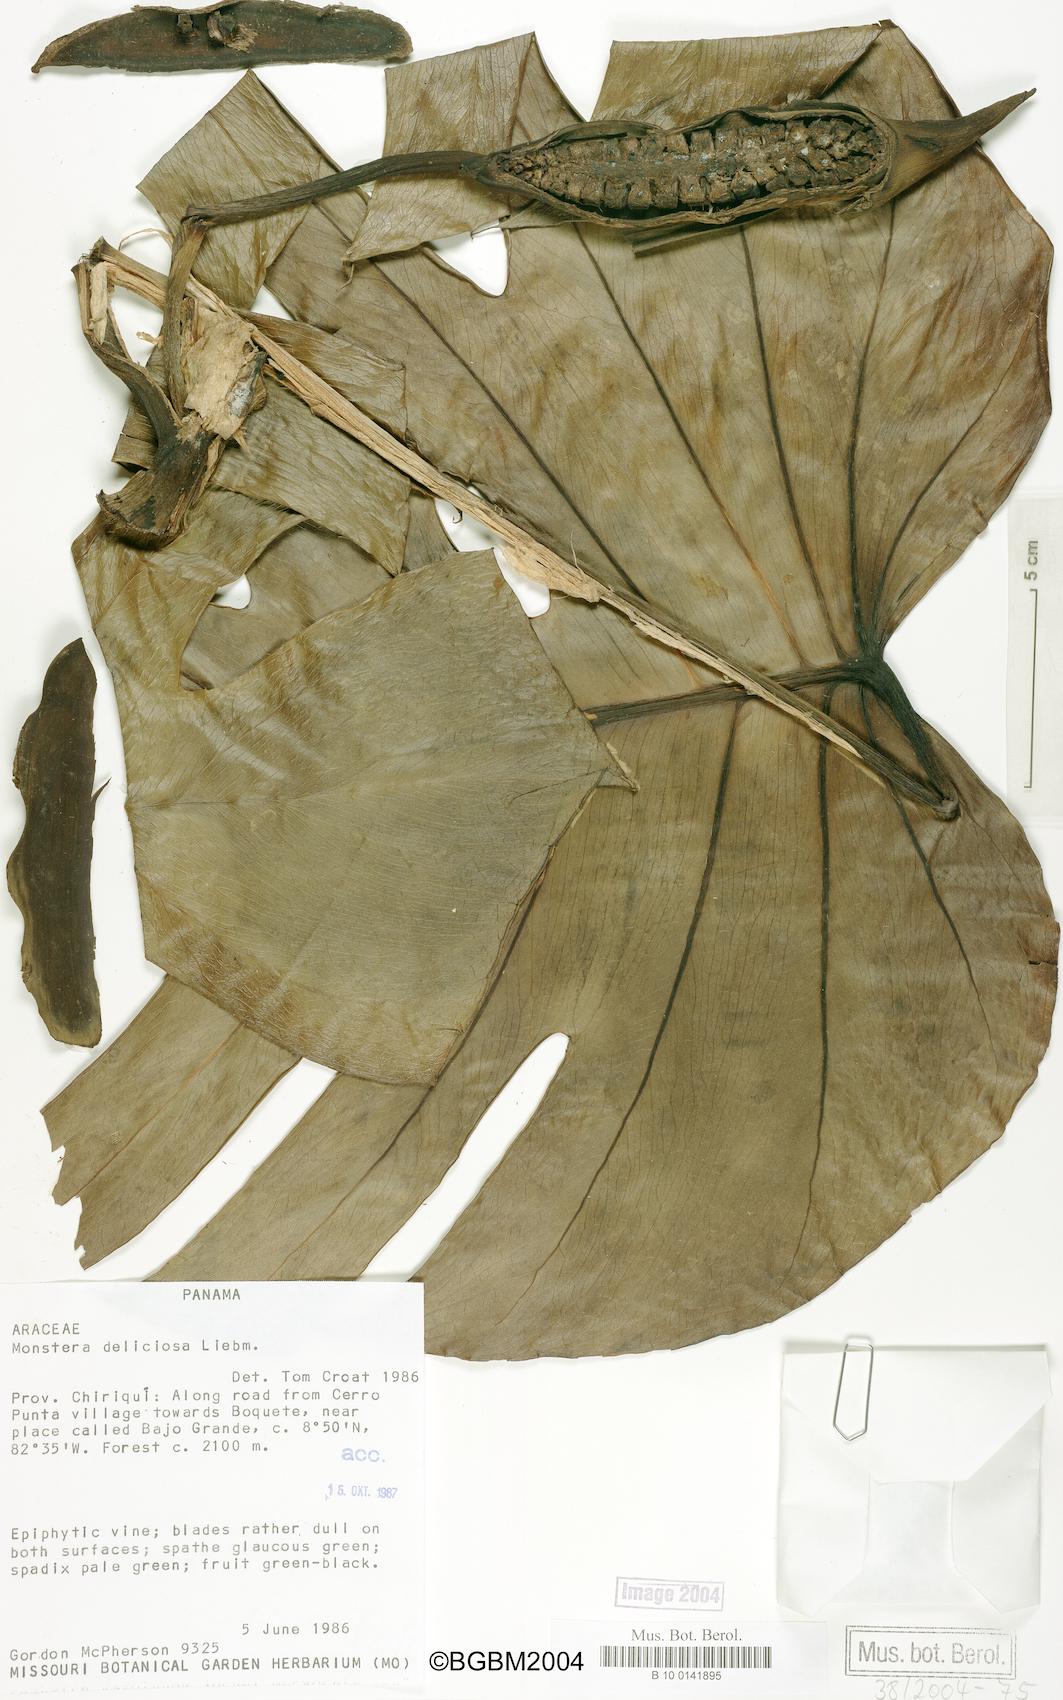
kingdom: Plantae
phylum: Tracheophyta
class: Liliopsida
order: Alismatales
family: Araceae
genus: Monstera
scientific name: Monstera deliciosa
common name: Cut-leaf-philodendron
